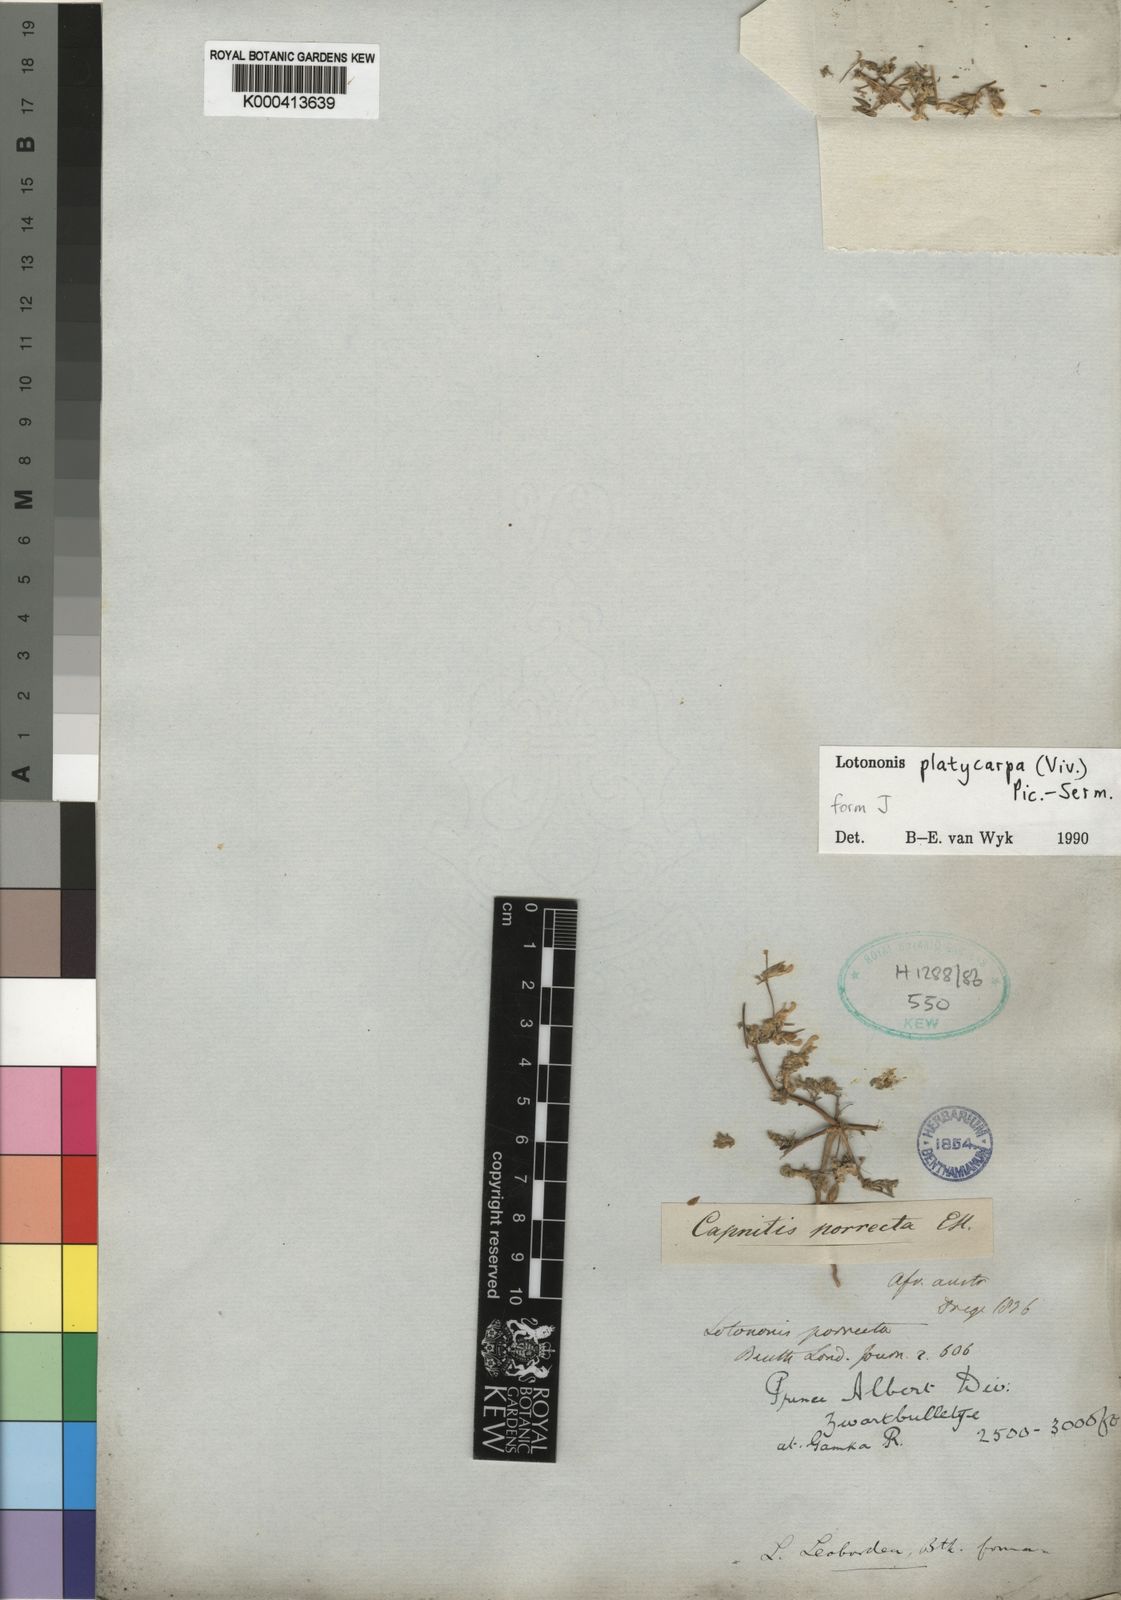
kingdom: Plantae
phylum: Tracheophyta
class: Magnoliopsida
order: Fabales
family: Fabaceae
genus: Leobordea
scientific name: Leobordea platycarpa
